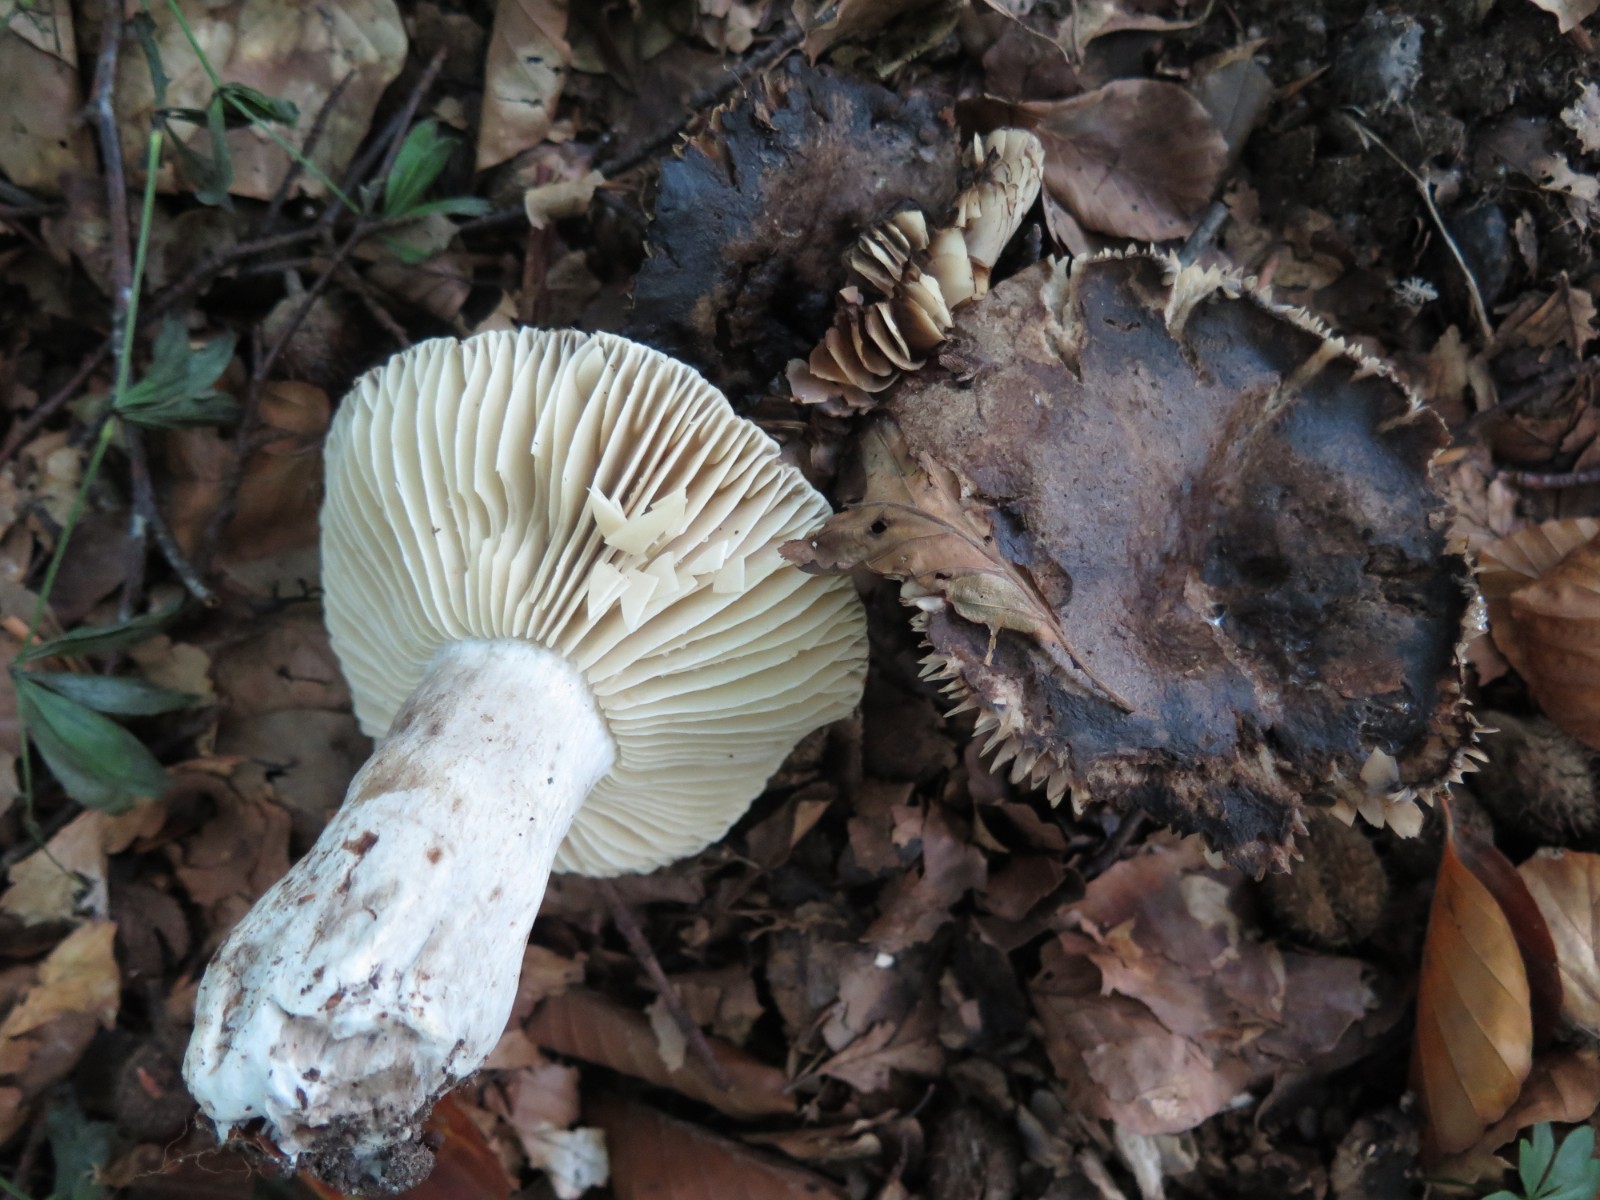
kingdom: Fungi
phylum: Basidiomycota
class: Agaricomycetes
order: Russulales
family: Russulaceae
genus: Russula
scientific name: Russula adusta
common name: sværtende skørhat
